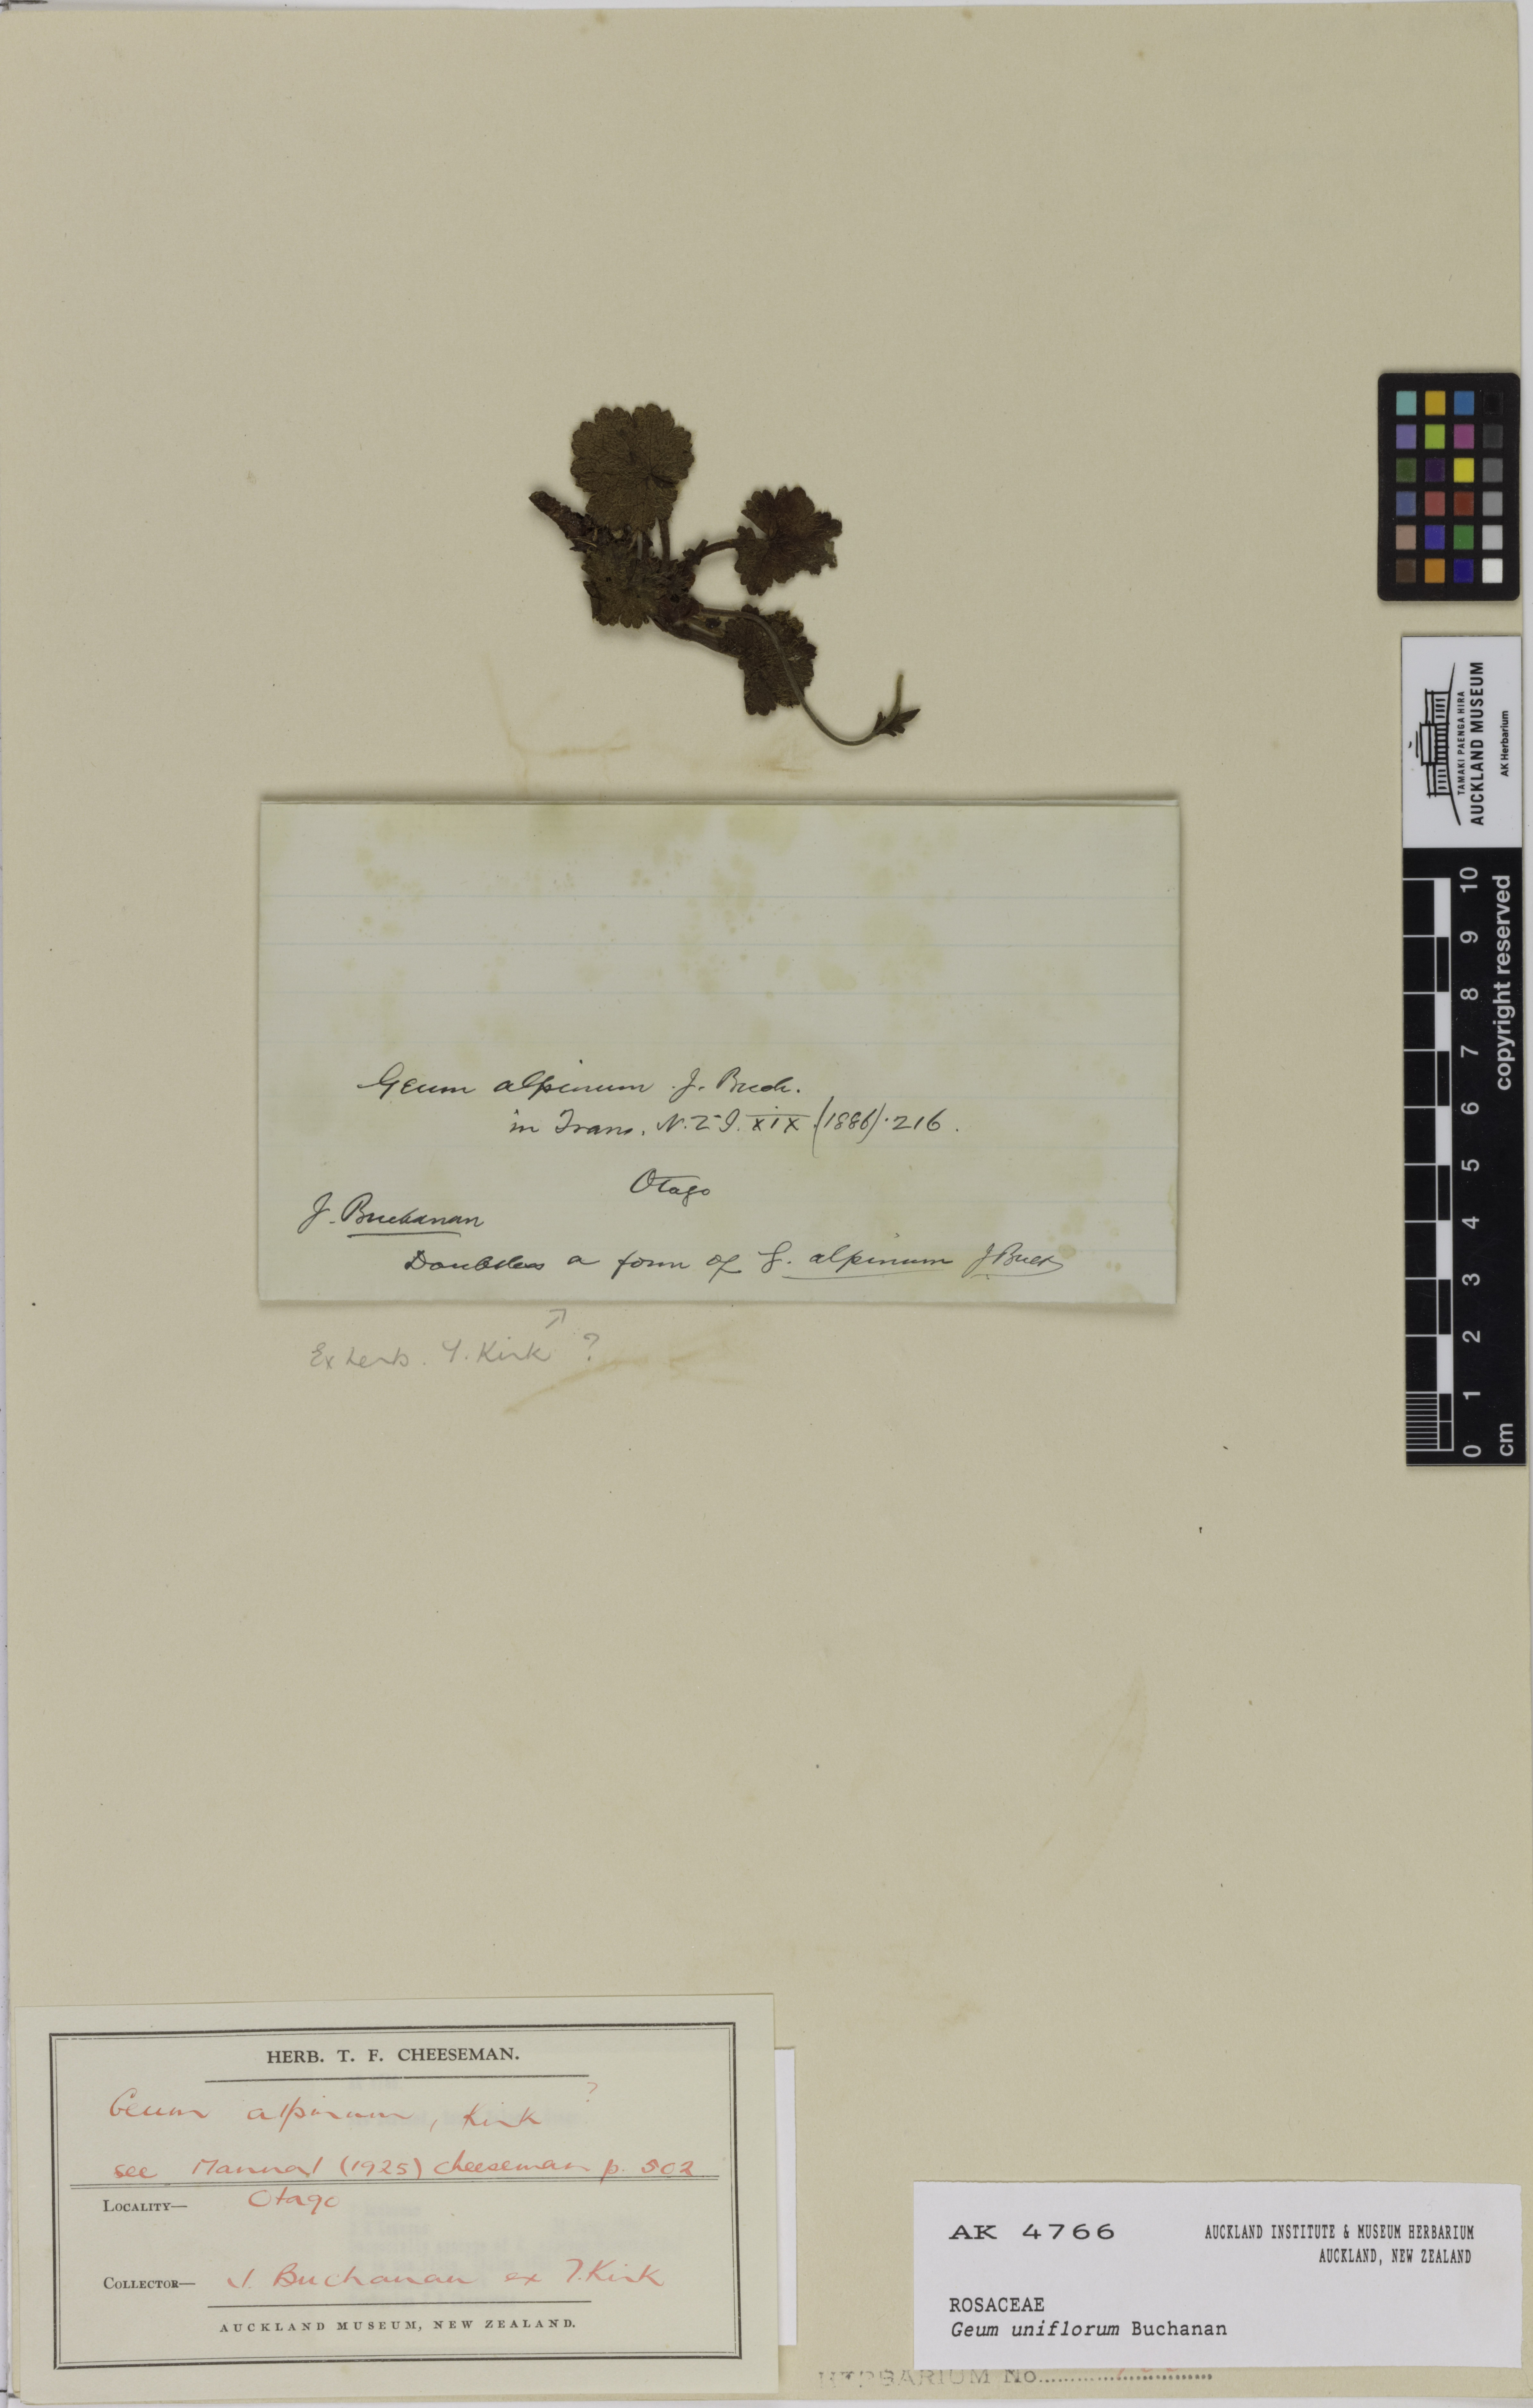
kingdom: Plantae
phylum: Tracheophyta
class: Magnoliopsida
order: Rosales
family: Rosaceae
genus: Geum
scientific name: Geum uniflorum
